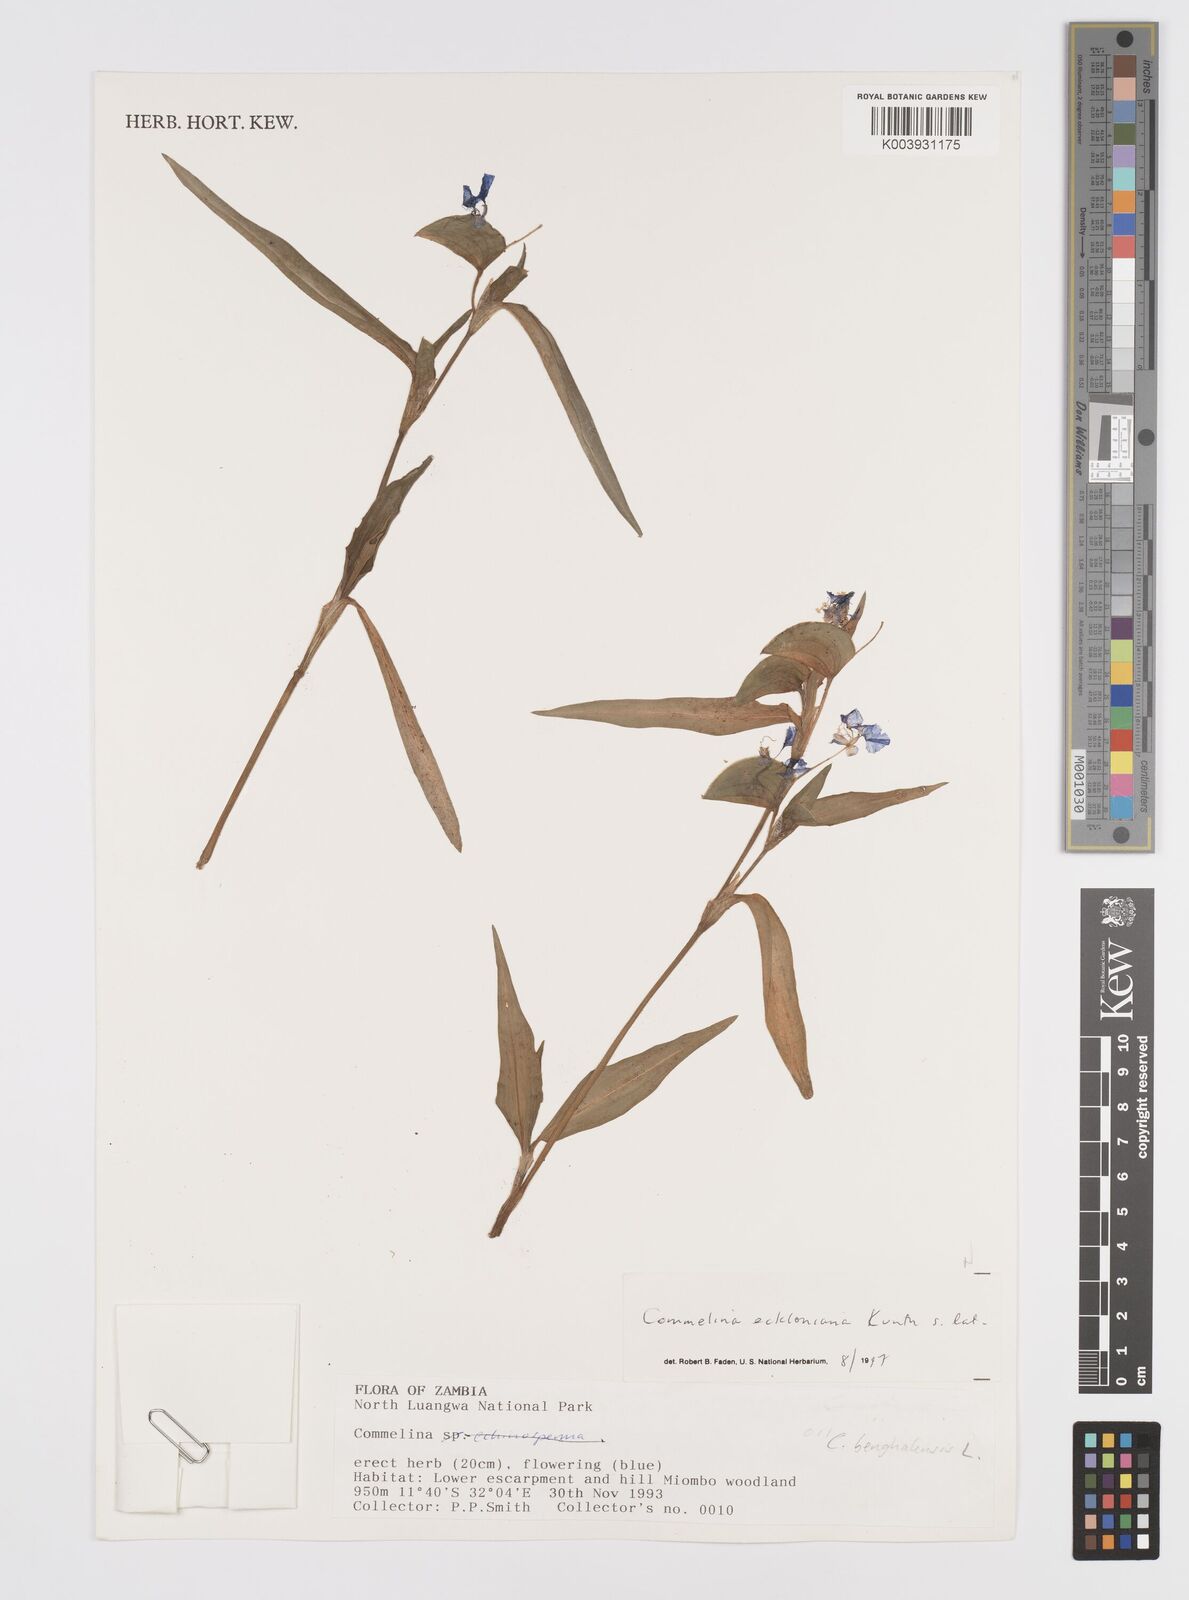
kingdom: Plantae
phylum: Tracheophyta
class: Liliopsida
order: Commelinales
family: Commelinaceae
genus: Commelina
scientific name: Commelina eckloniana
